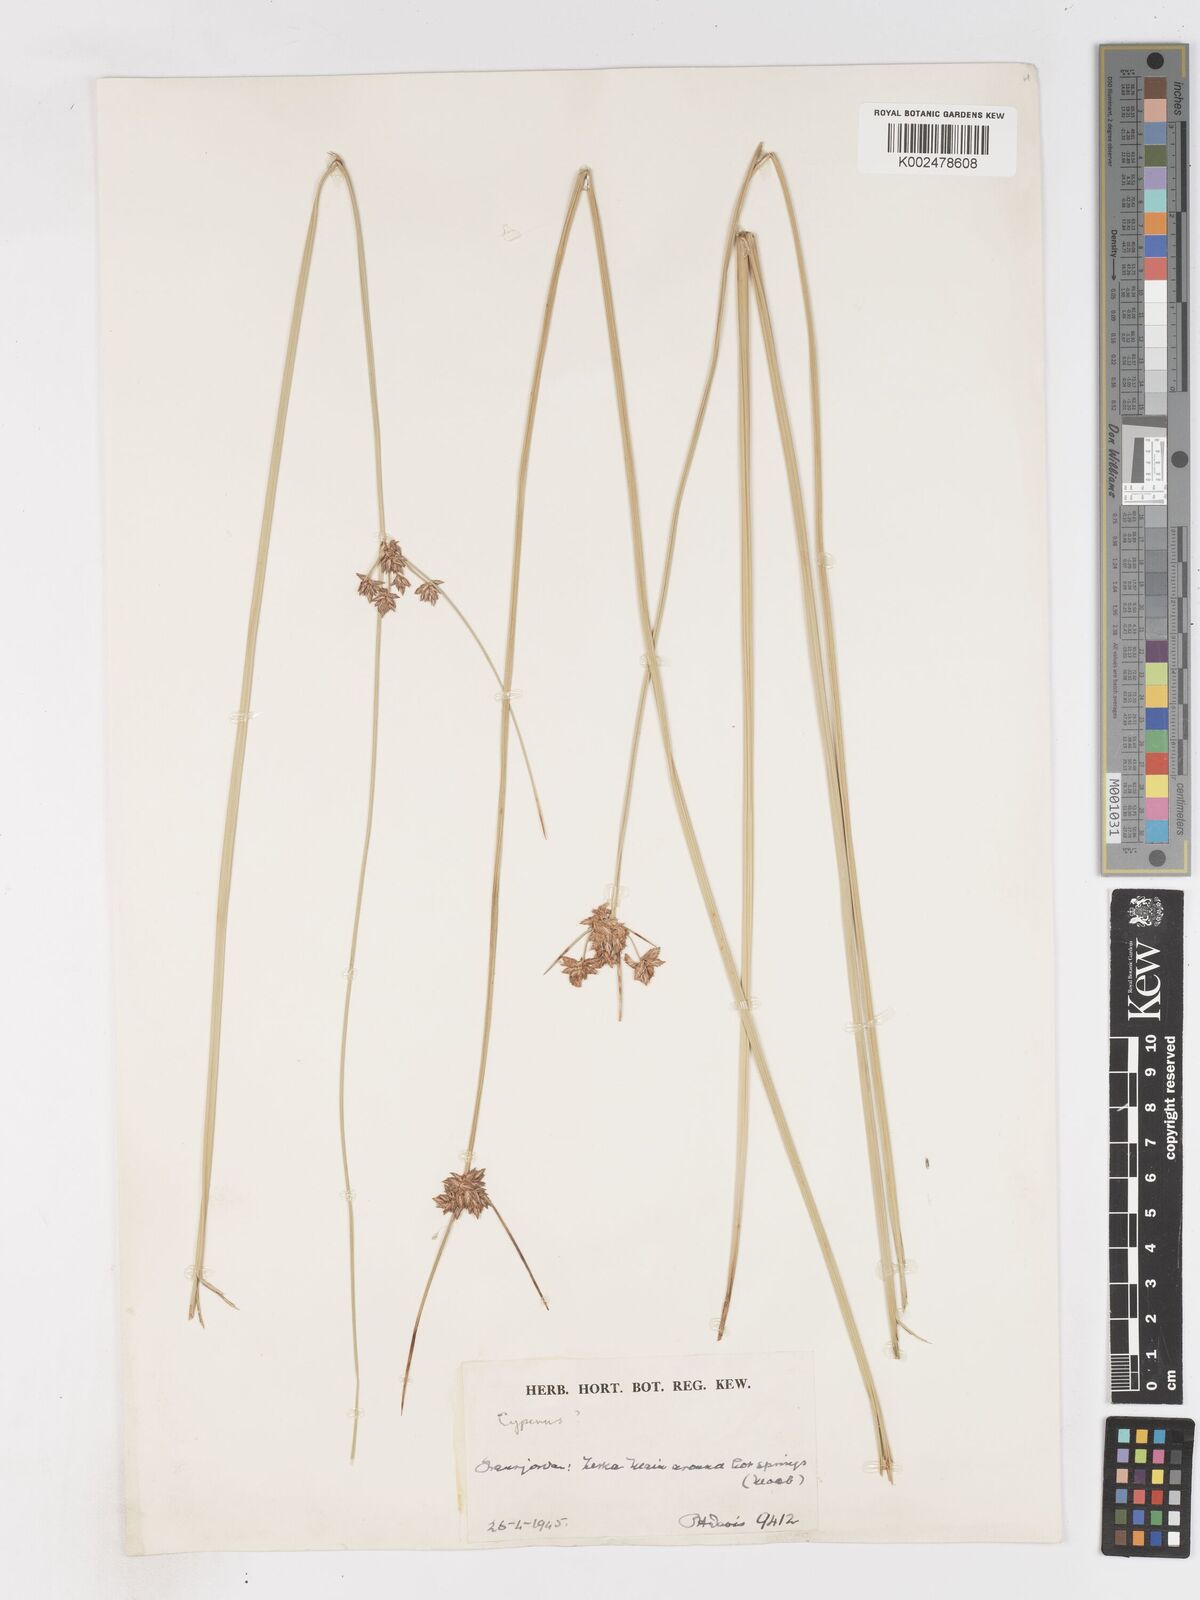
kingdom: Plantae
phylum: Tracheophyta
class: Liliopsida
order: Poales
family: Cyperaceae
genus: Cyperus
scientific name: Cyperus conglomeratus
